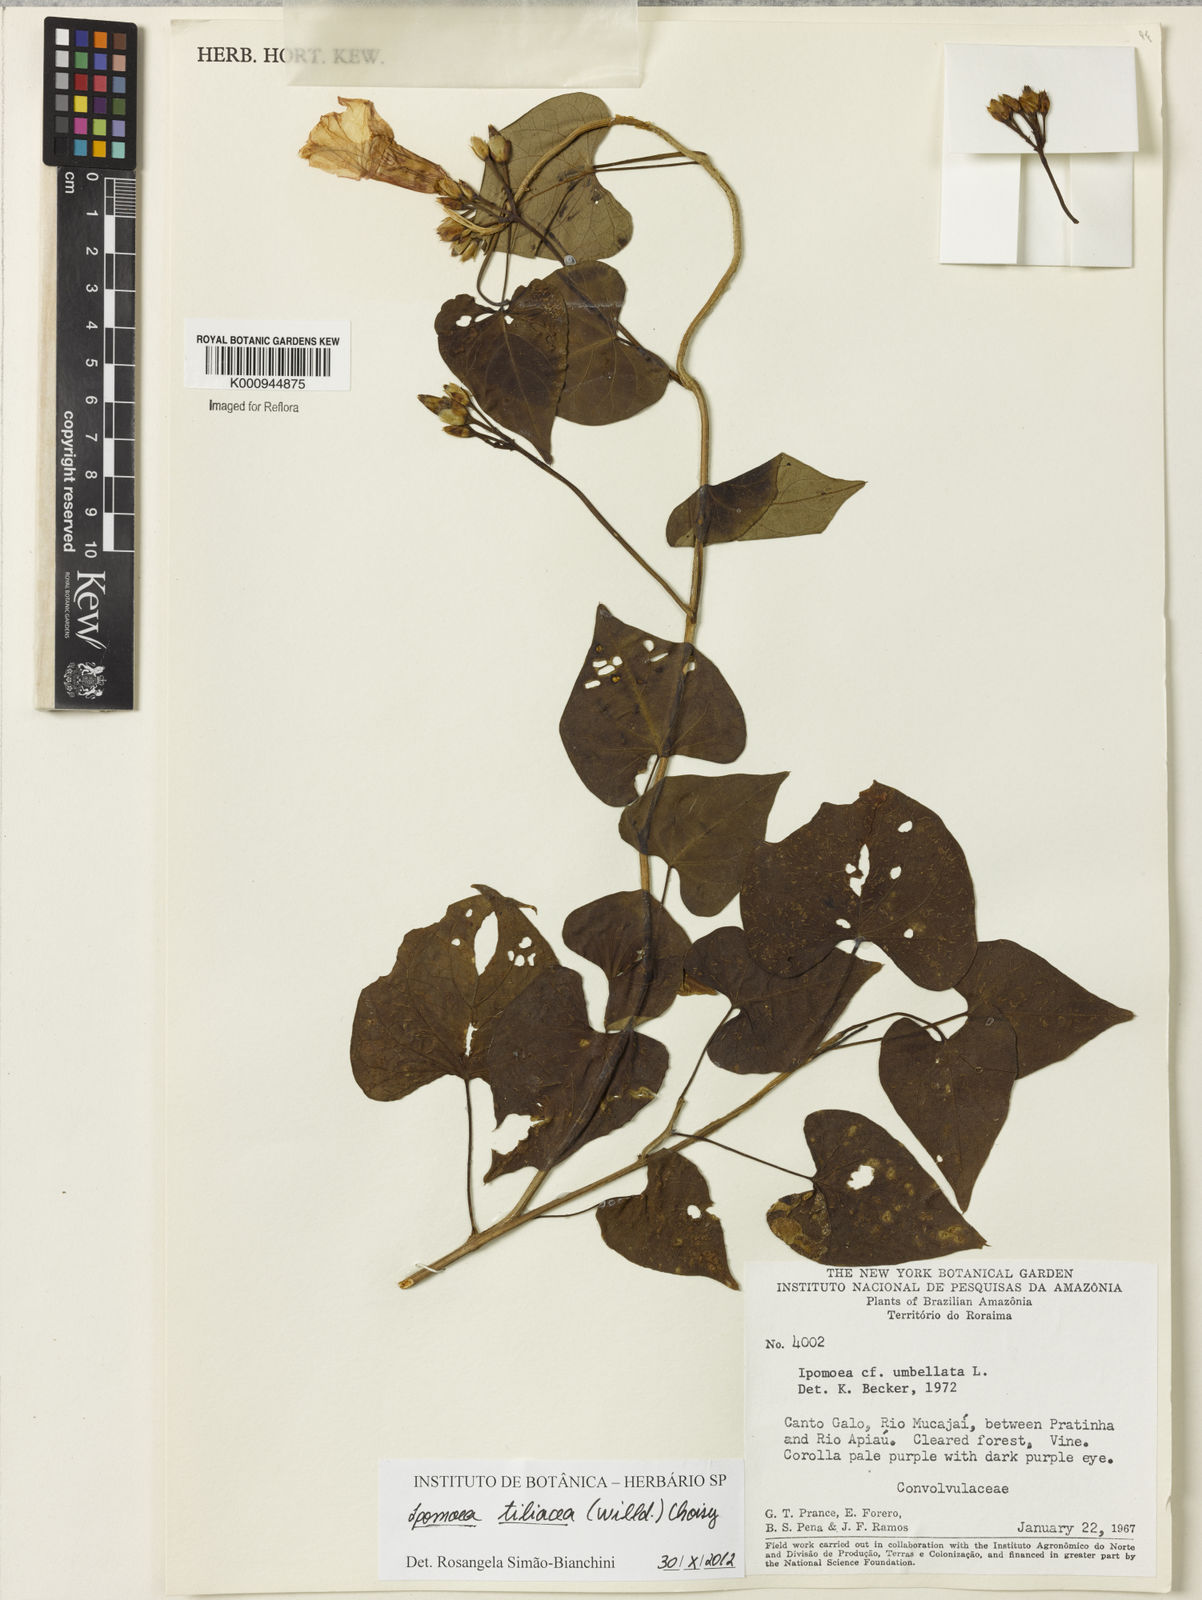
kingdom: Plantae
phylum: Tracheophyta
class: Magnoliopsida
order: Solanales
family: Convolvulaceae
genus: Ipomoea
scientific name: Ipomoea tiliacea
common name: Wild potato vine
